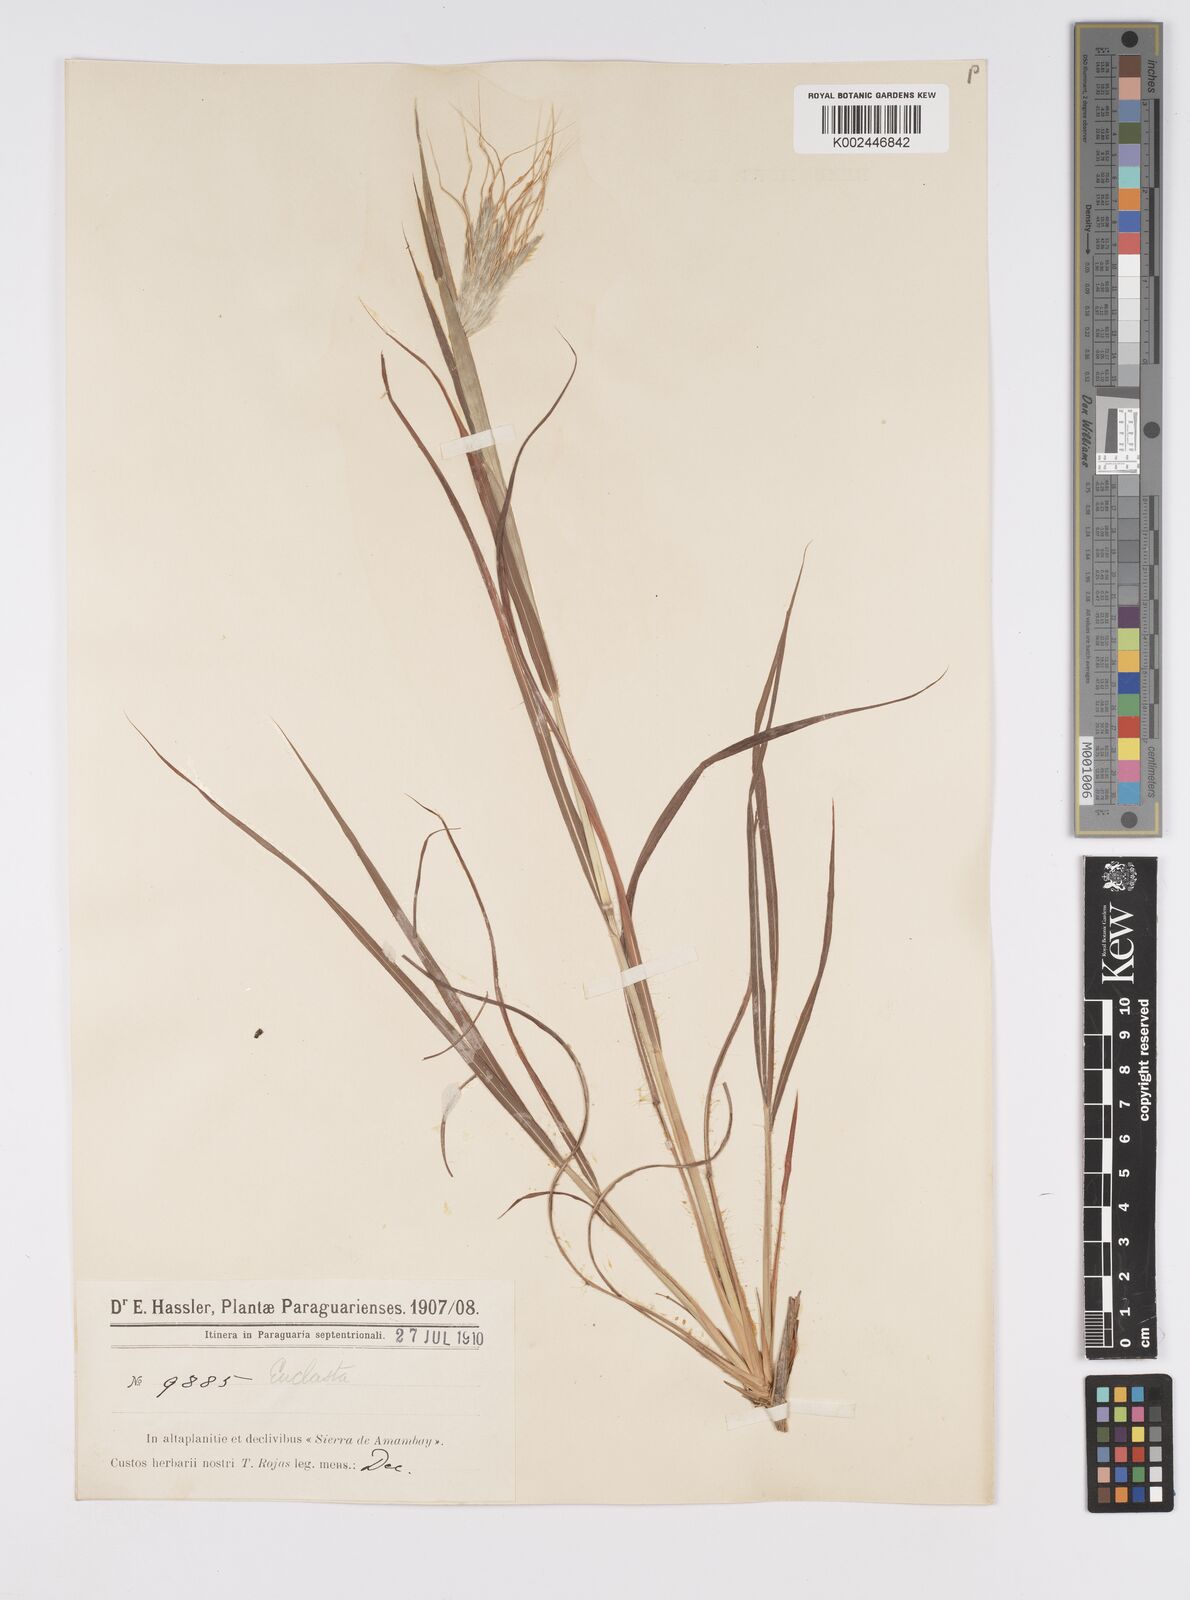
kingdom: Plantae
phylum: Tracheophyta
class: Liliopsida
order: Poales
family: Poaceae
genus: Agenium
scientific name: Agenium villosum
